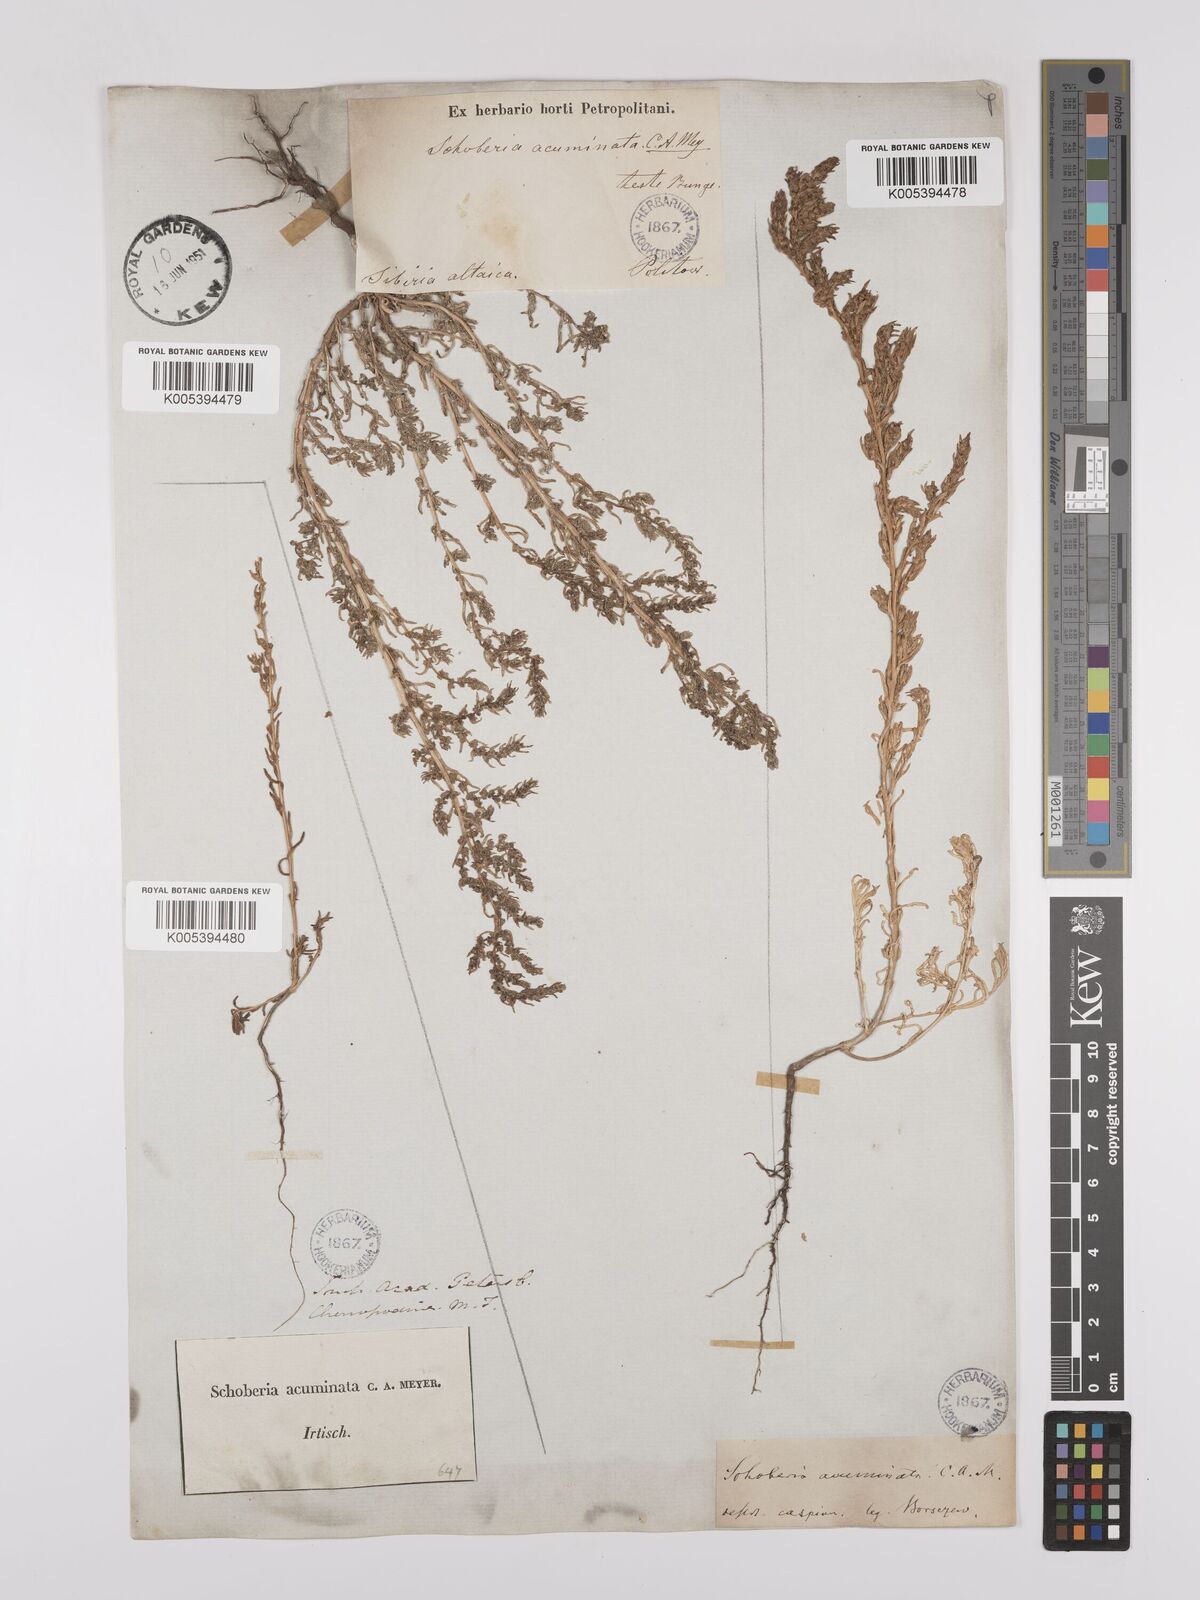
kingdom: Plantae
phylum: Tracheophyta
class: Magnoliopsida
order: Caryophyllales
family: Amaranthaceae
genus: Suaeda
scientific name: Suaeda acuminata
